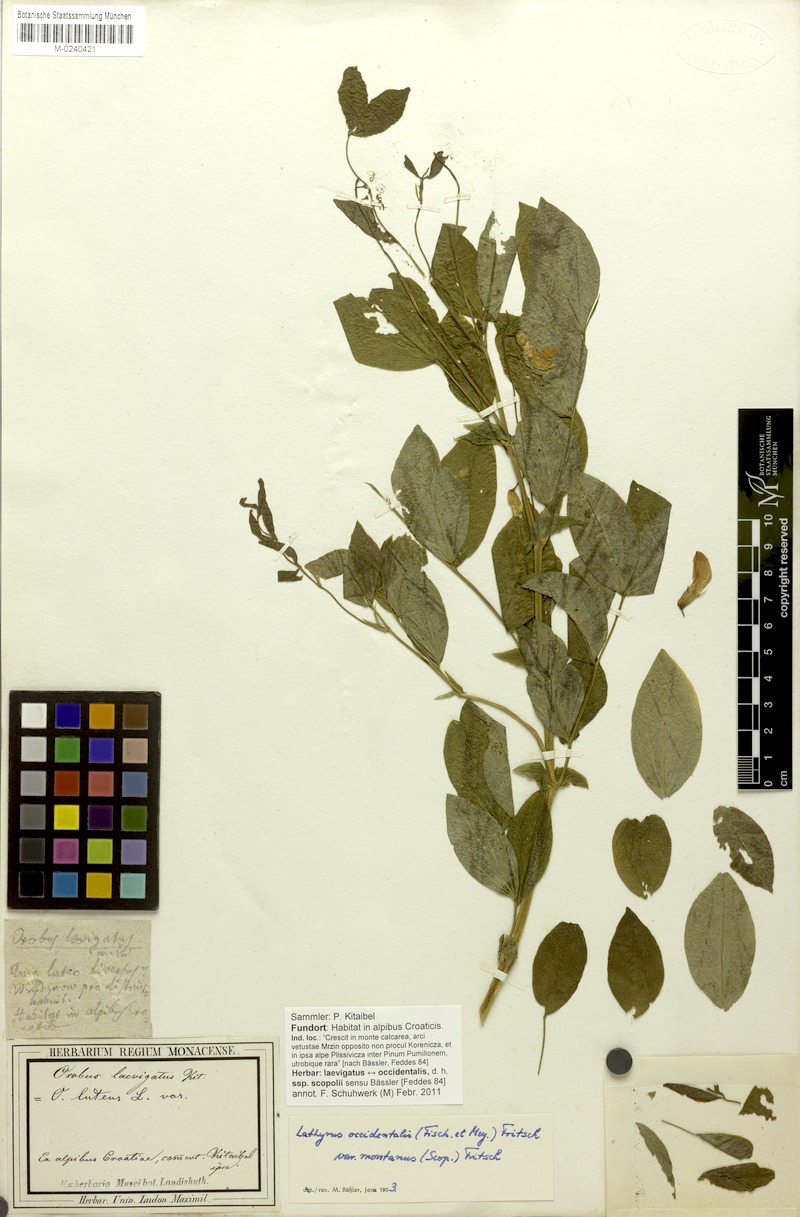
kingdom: Plantae
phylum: Tracheophyta
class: Magnoliopsida
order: Fabales
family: Fabaceae
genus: Lathyrus
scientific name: Lathyrus laevigatus
